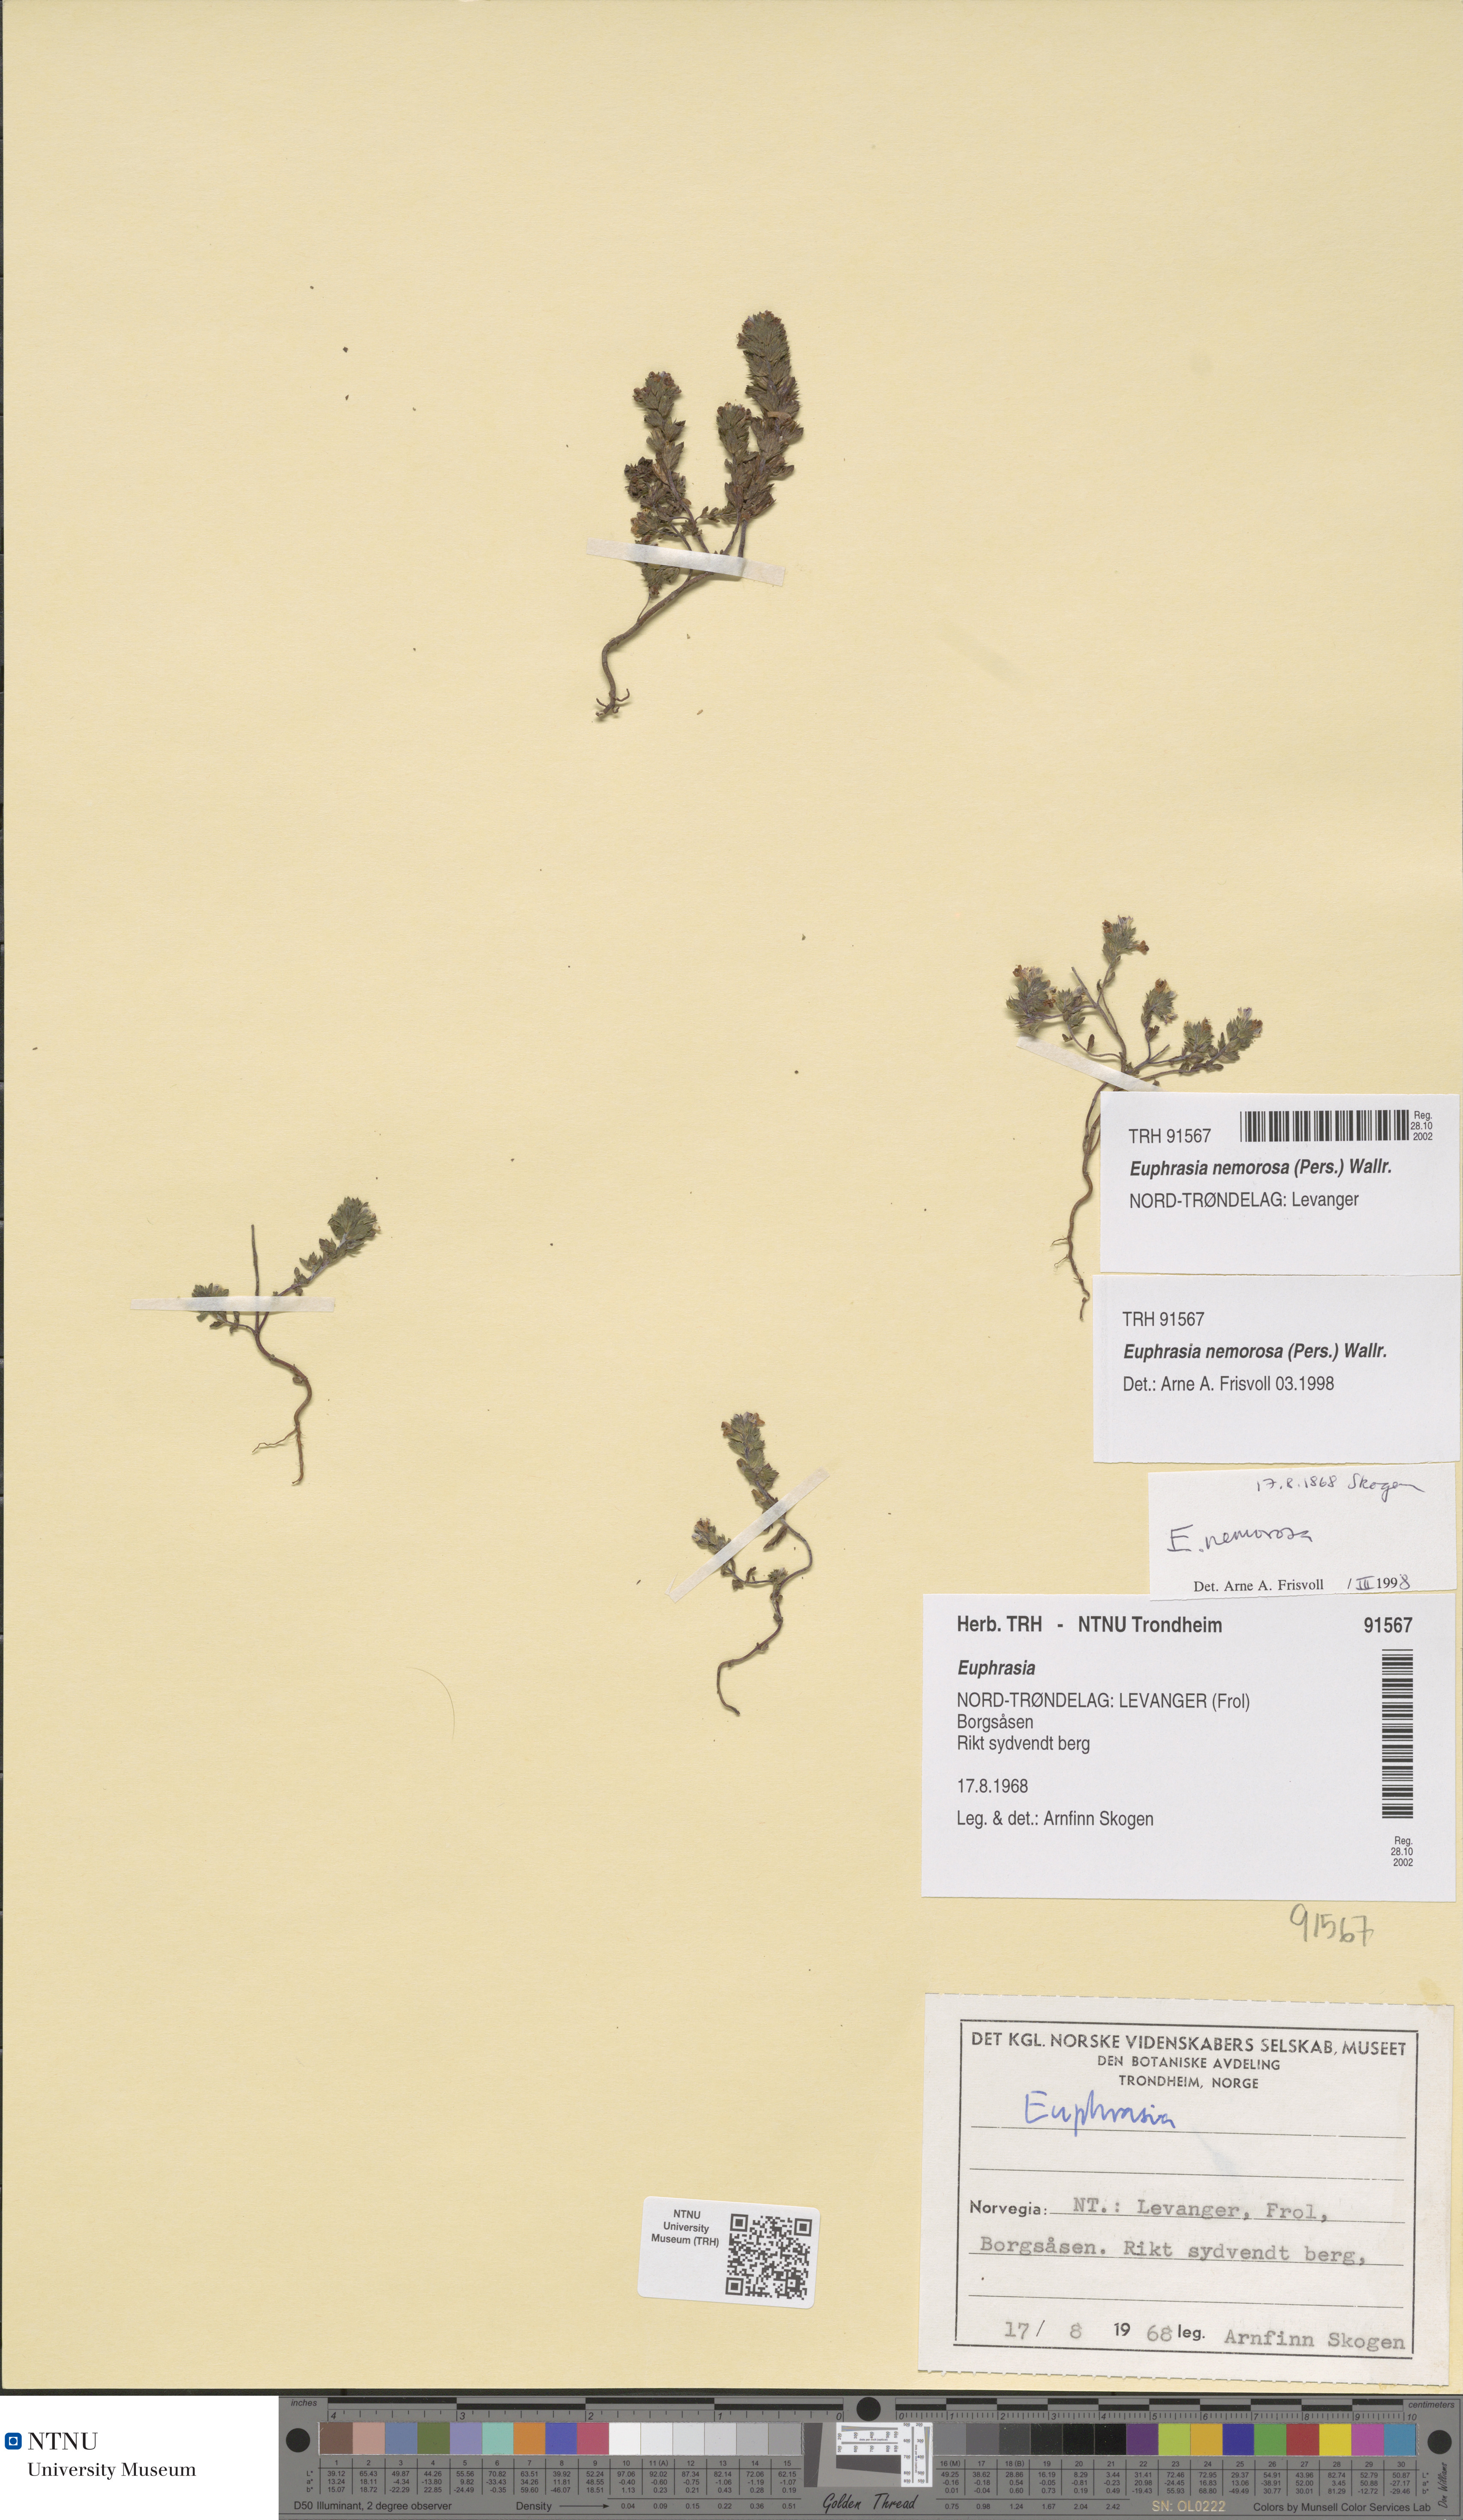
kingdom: Plantae
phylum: Tracheophyta
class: Magnoliopsida
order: Lamiales
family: Orobanchaceae
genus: Euphrasia
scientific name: Euphrasia nemorosa
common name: Common eyebright
